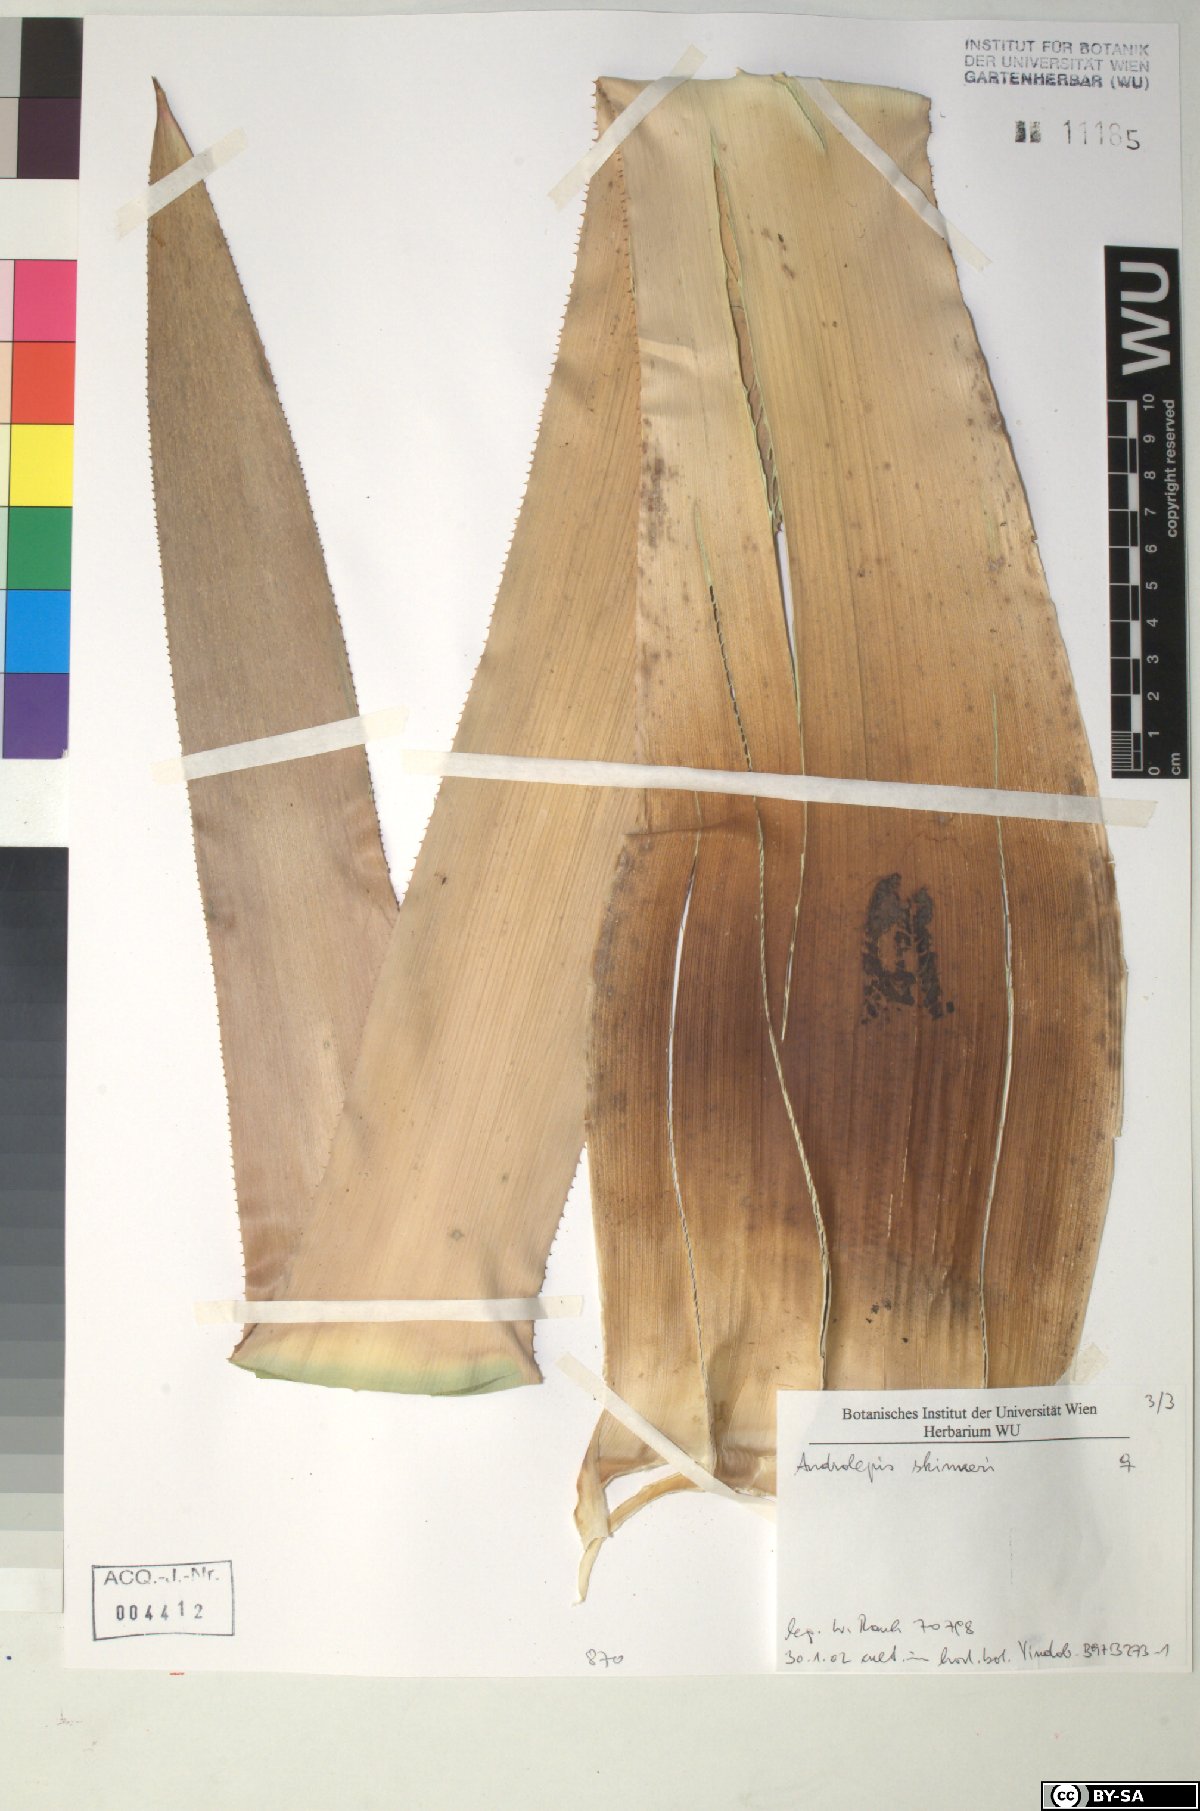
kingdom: Plantae
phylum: Tracheophyta
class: Liliopsida
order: Poales
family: Bromeliaceae
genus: Androlepis
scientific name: Androlepis skinneri
